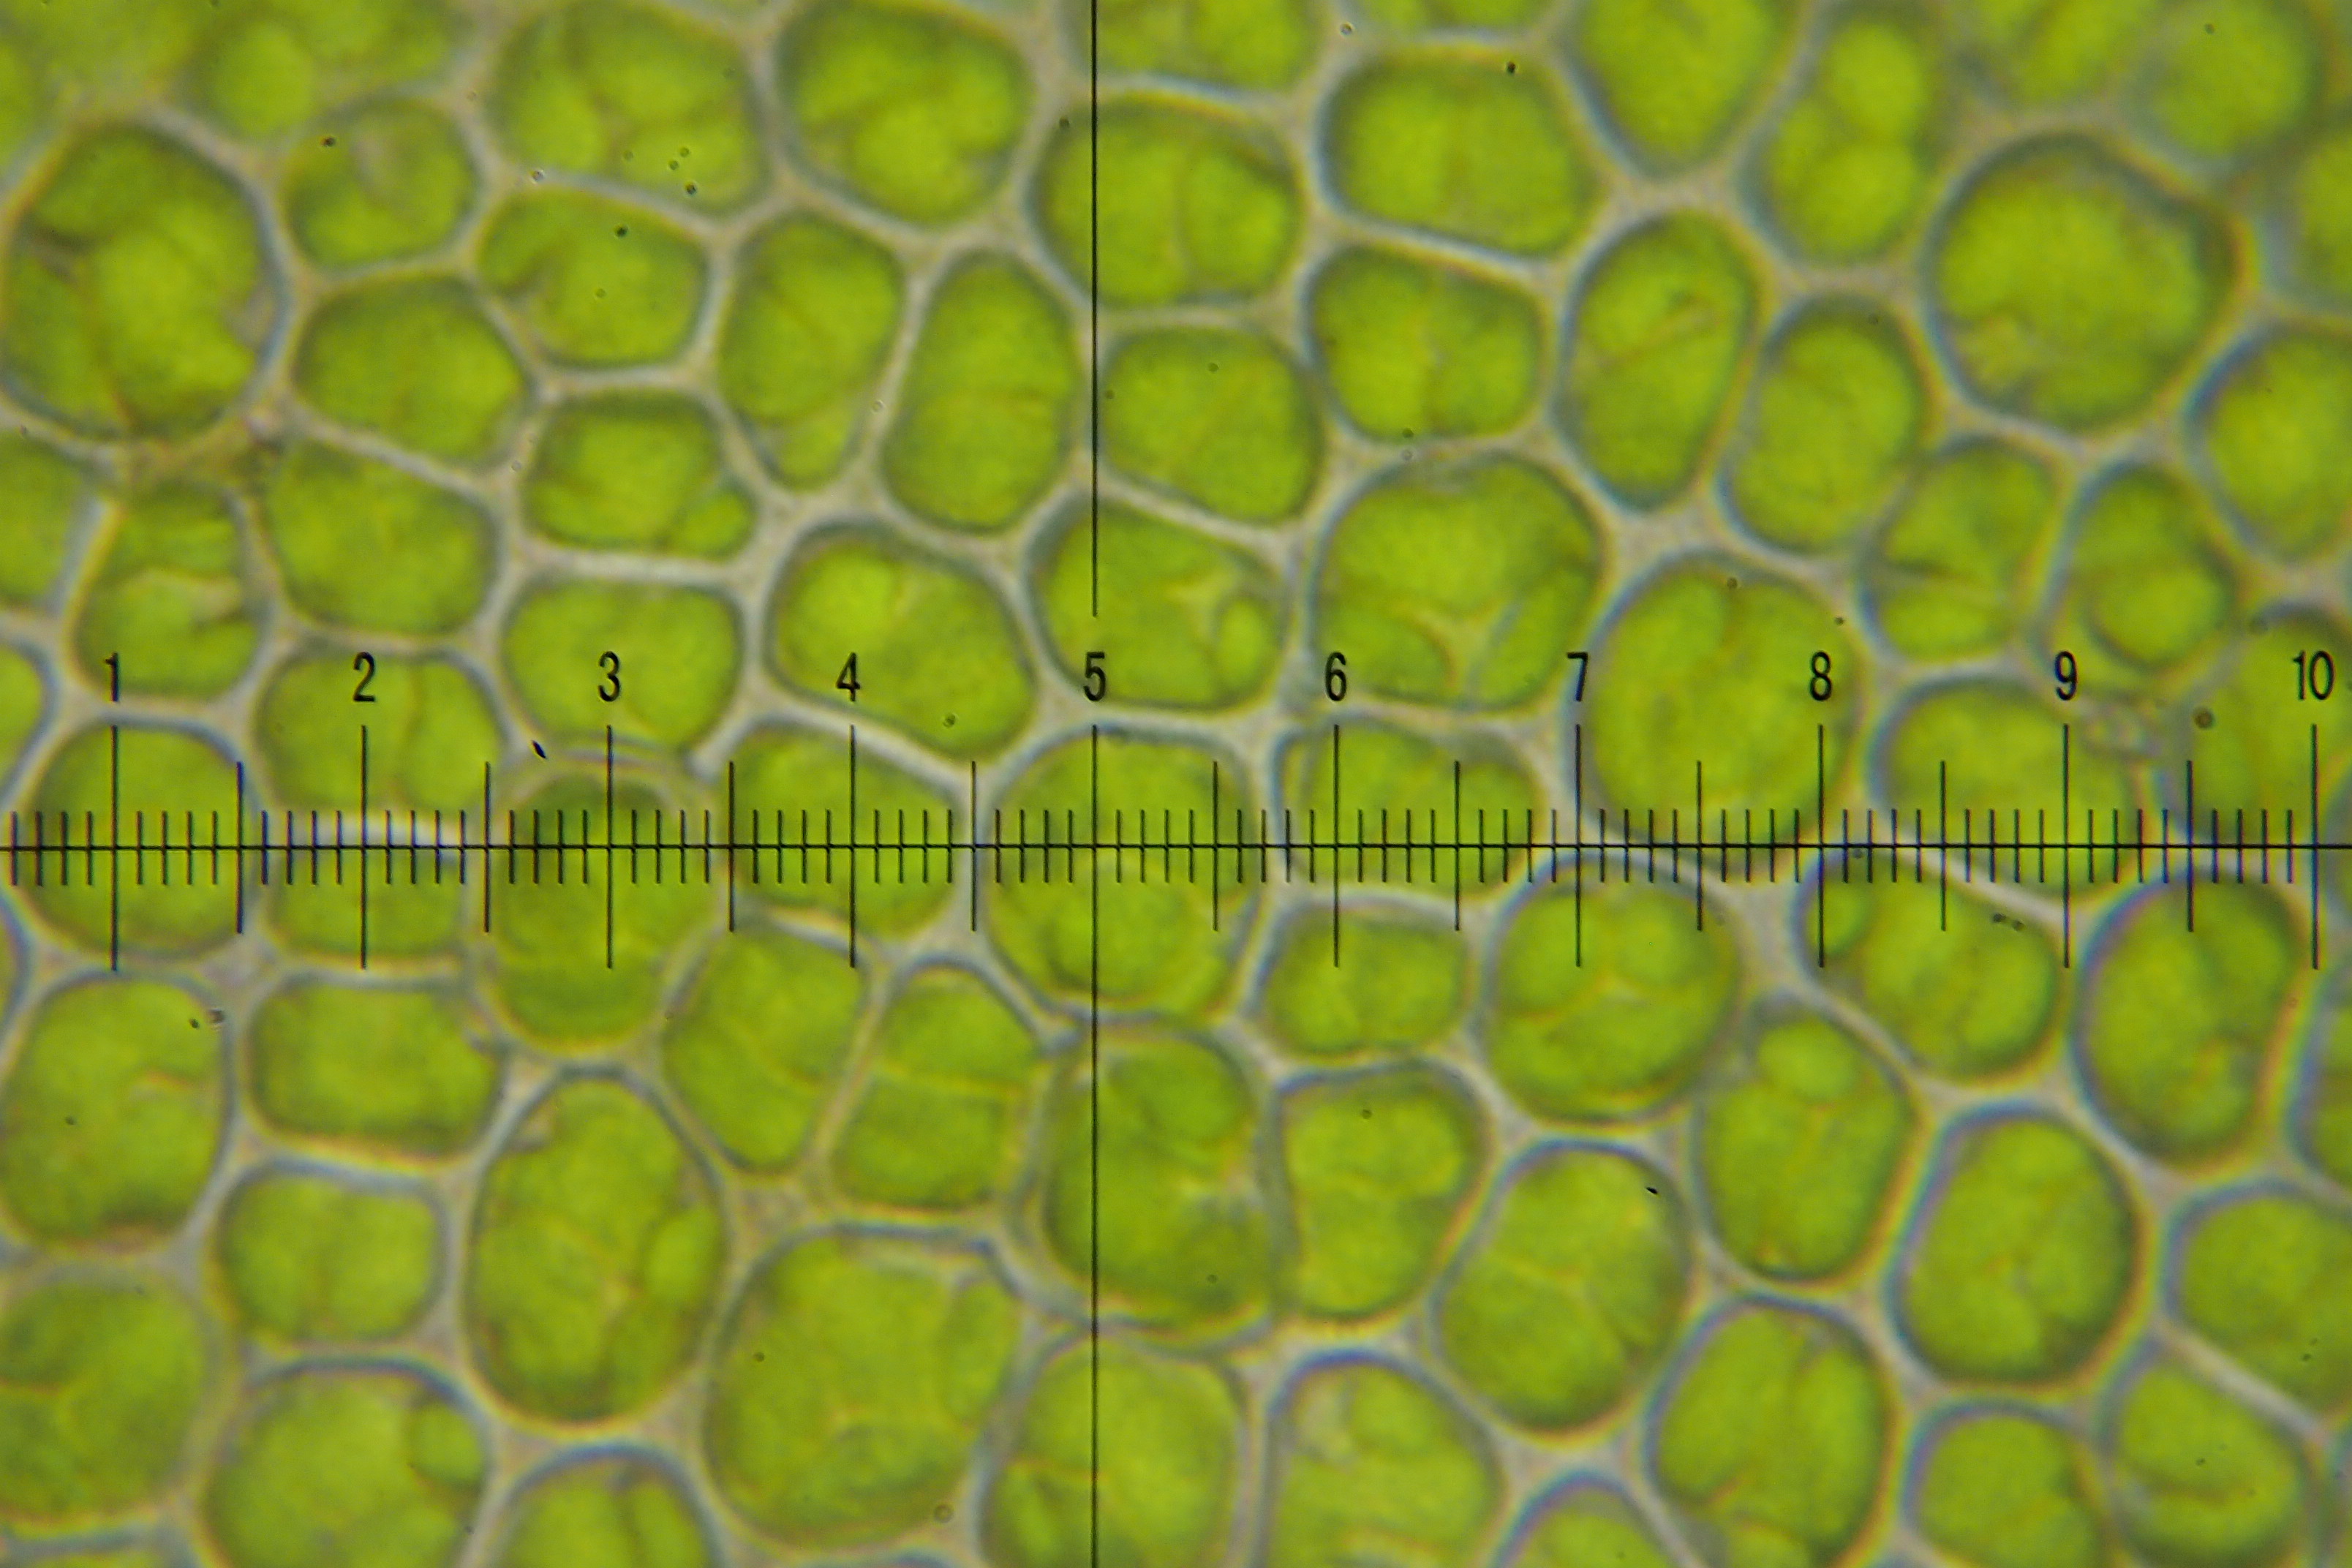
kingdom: Plantae
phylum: Bryophyta
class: Bryopsida
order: Dicranales
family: Fissidentaceae
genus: Fissidens
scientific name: Fissidens adianthoides
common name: Kær-rademos
